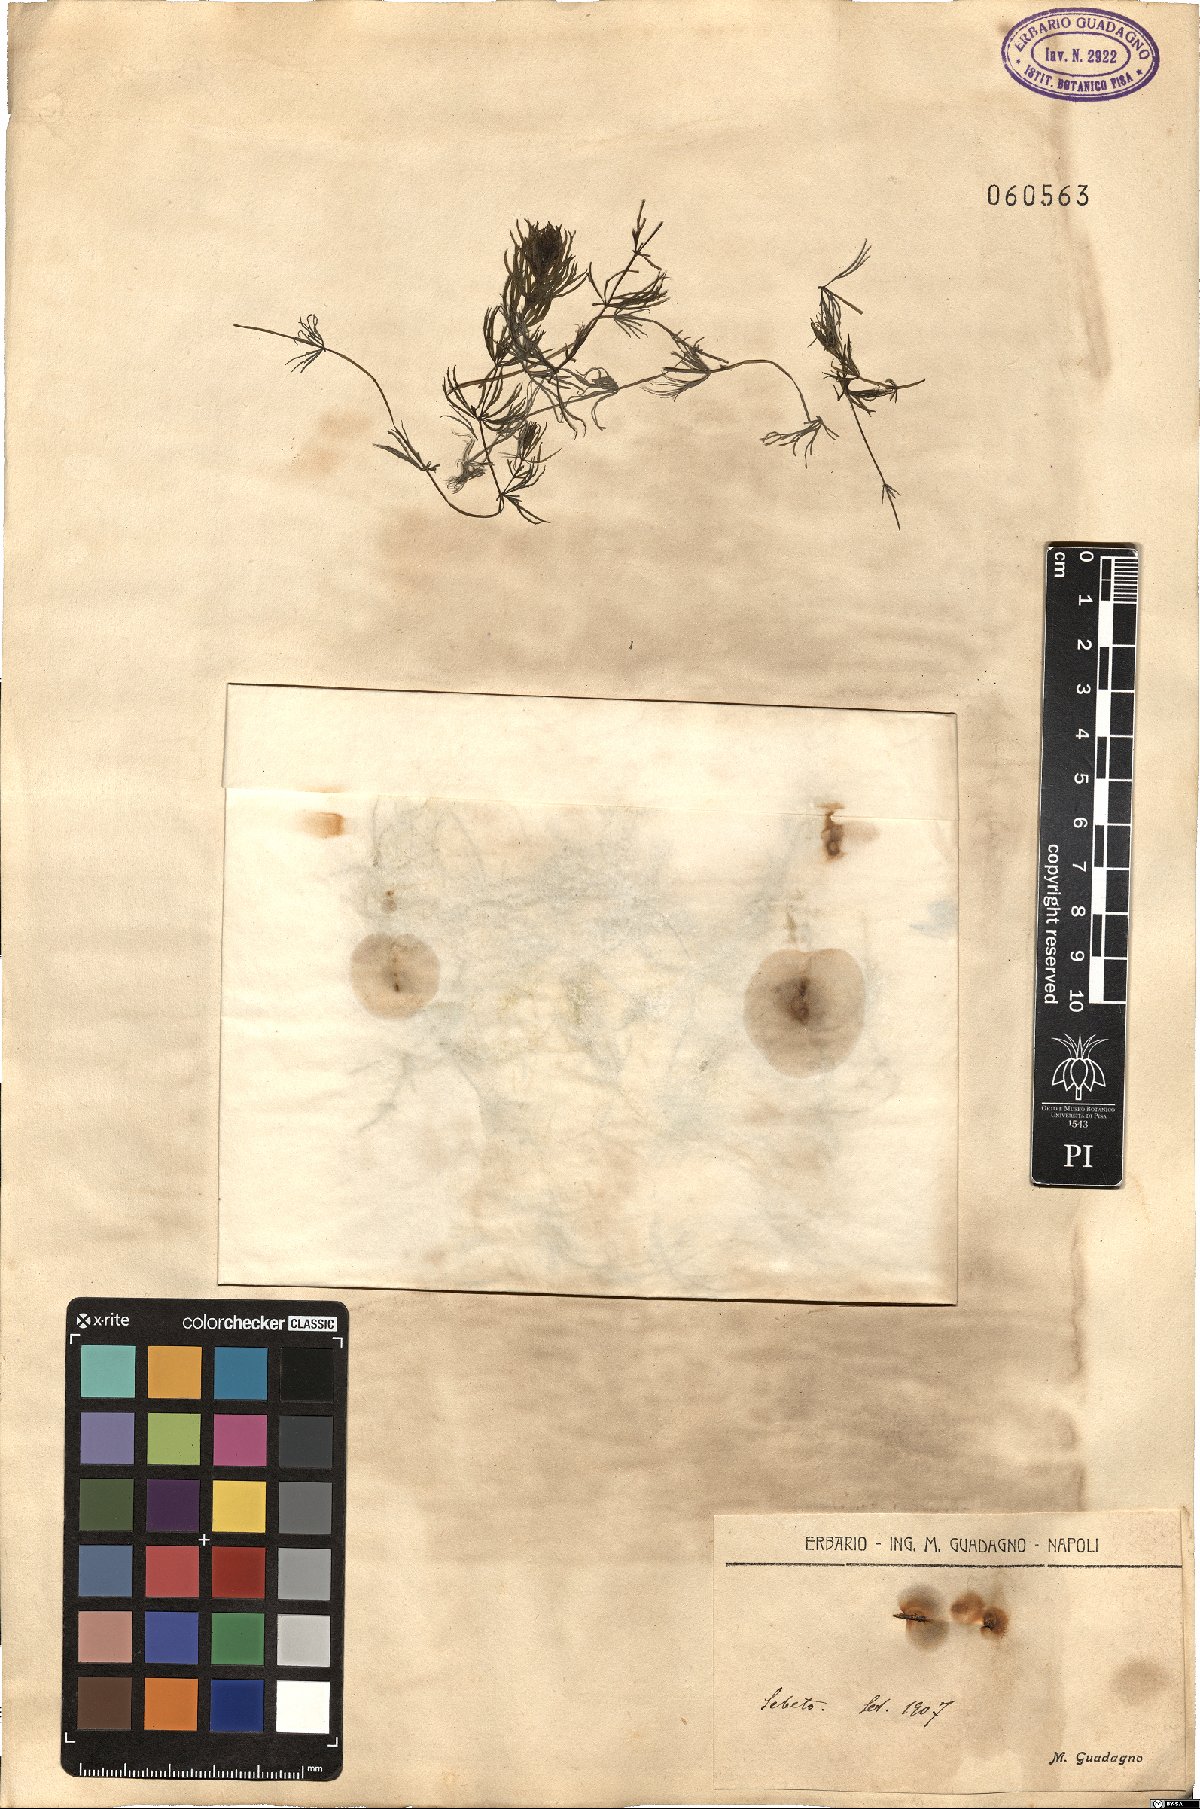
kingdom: Plantae
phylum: Tracheophyta
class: Liliopsida
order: Alismatales
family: Hydrocharitaceae
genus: Najas
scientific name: Najas
